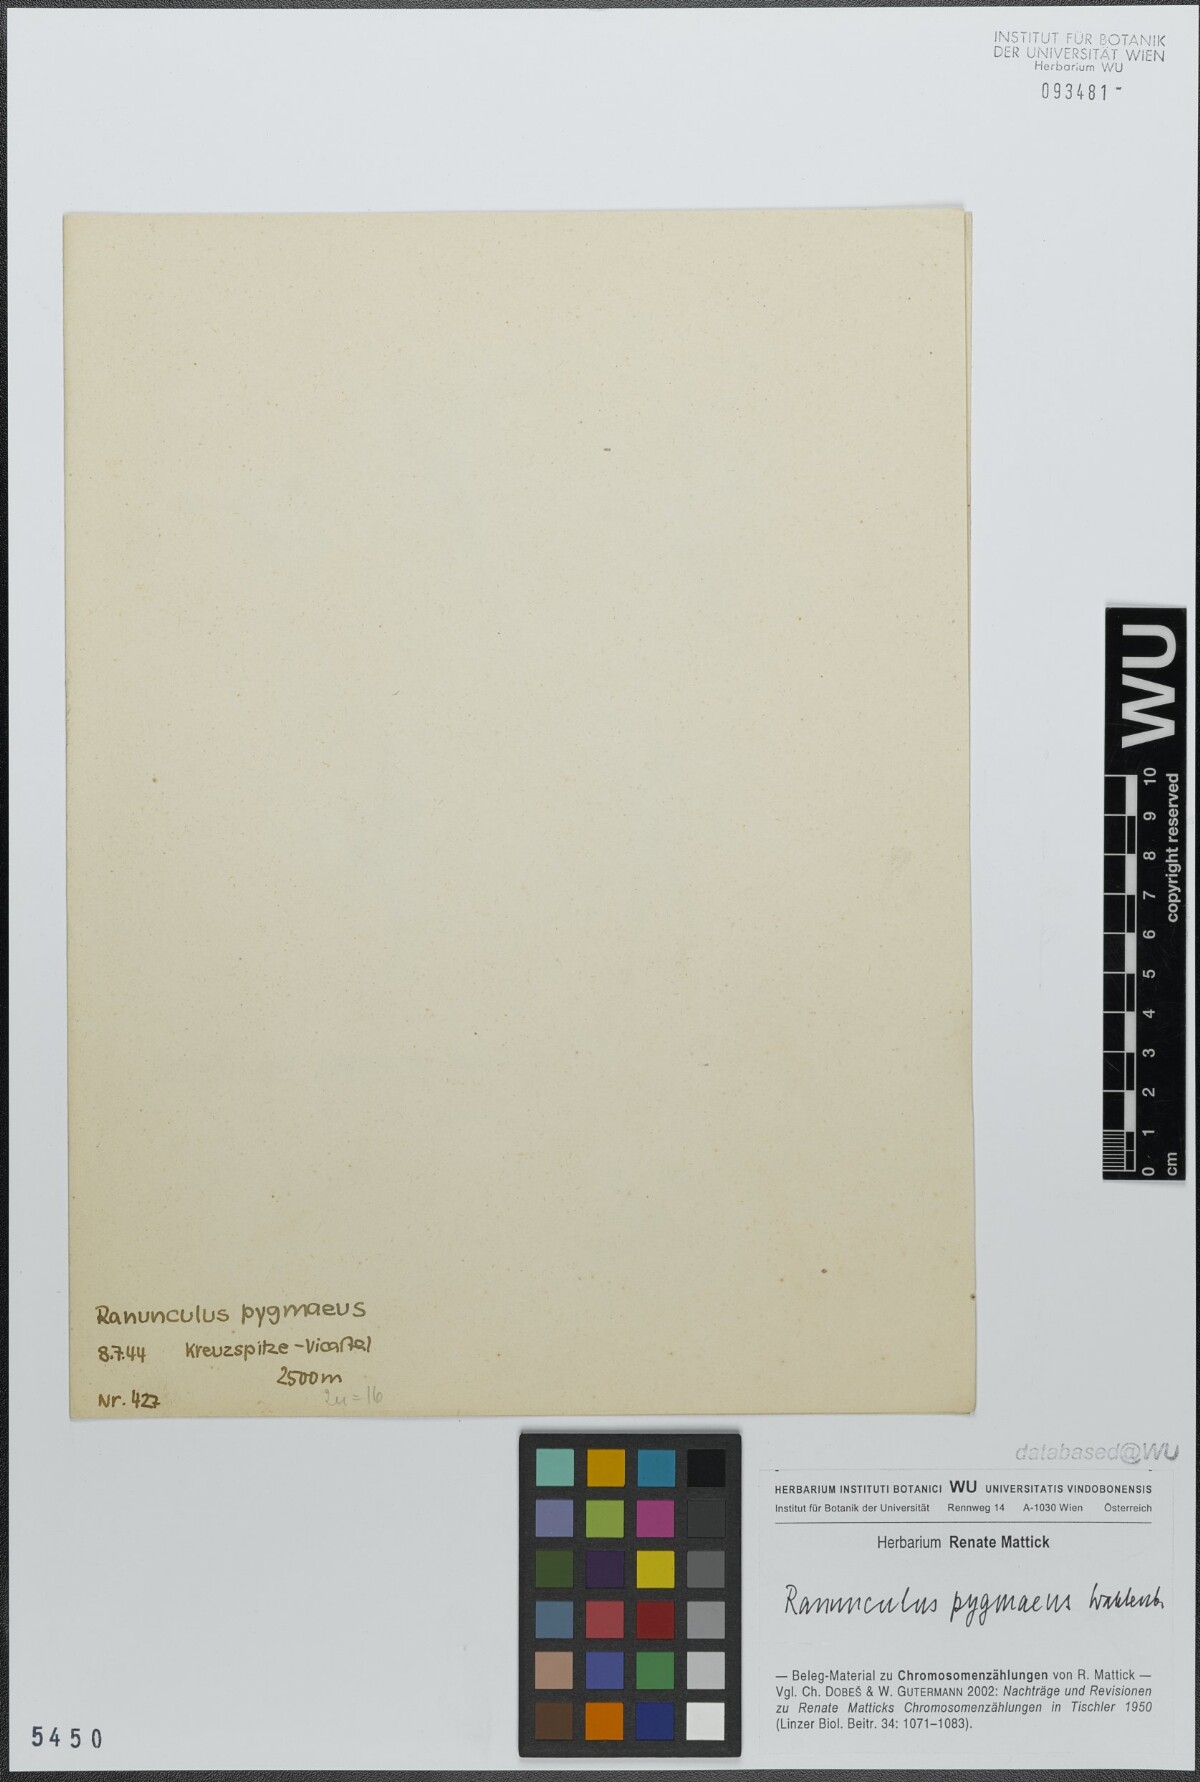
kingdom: Plantae
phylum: Tracheophyta
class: Magnoliopsida
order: Ranunculales
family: Ranunculaceae
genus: Ranunculus
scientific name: Ranunculus pygmaeus
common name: Dwarf buttercup
